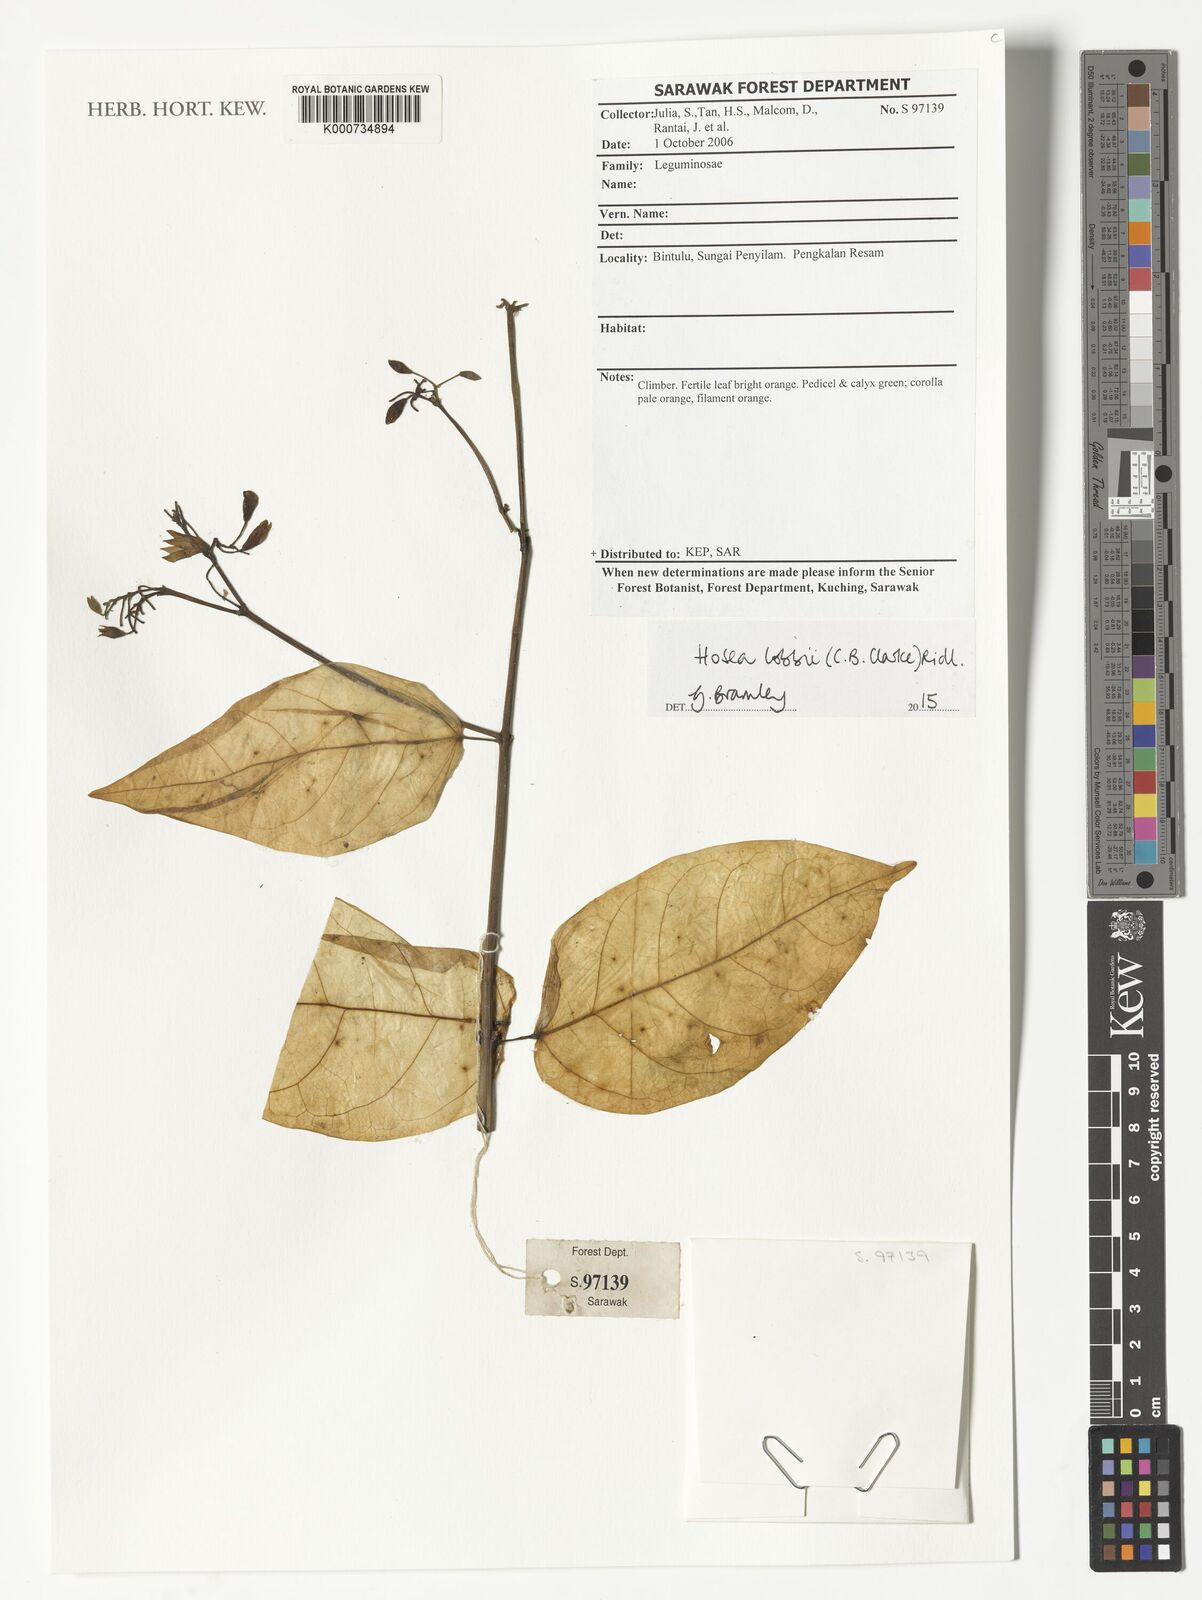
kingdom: Plantae
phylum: Tracheophyta
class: Magnoliopsida
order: Lamiales
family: Lamiaceae
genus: Hosea
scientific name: Hosea lobbii
